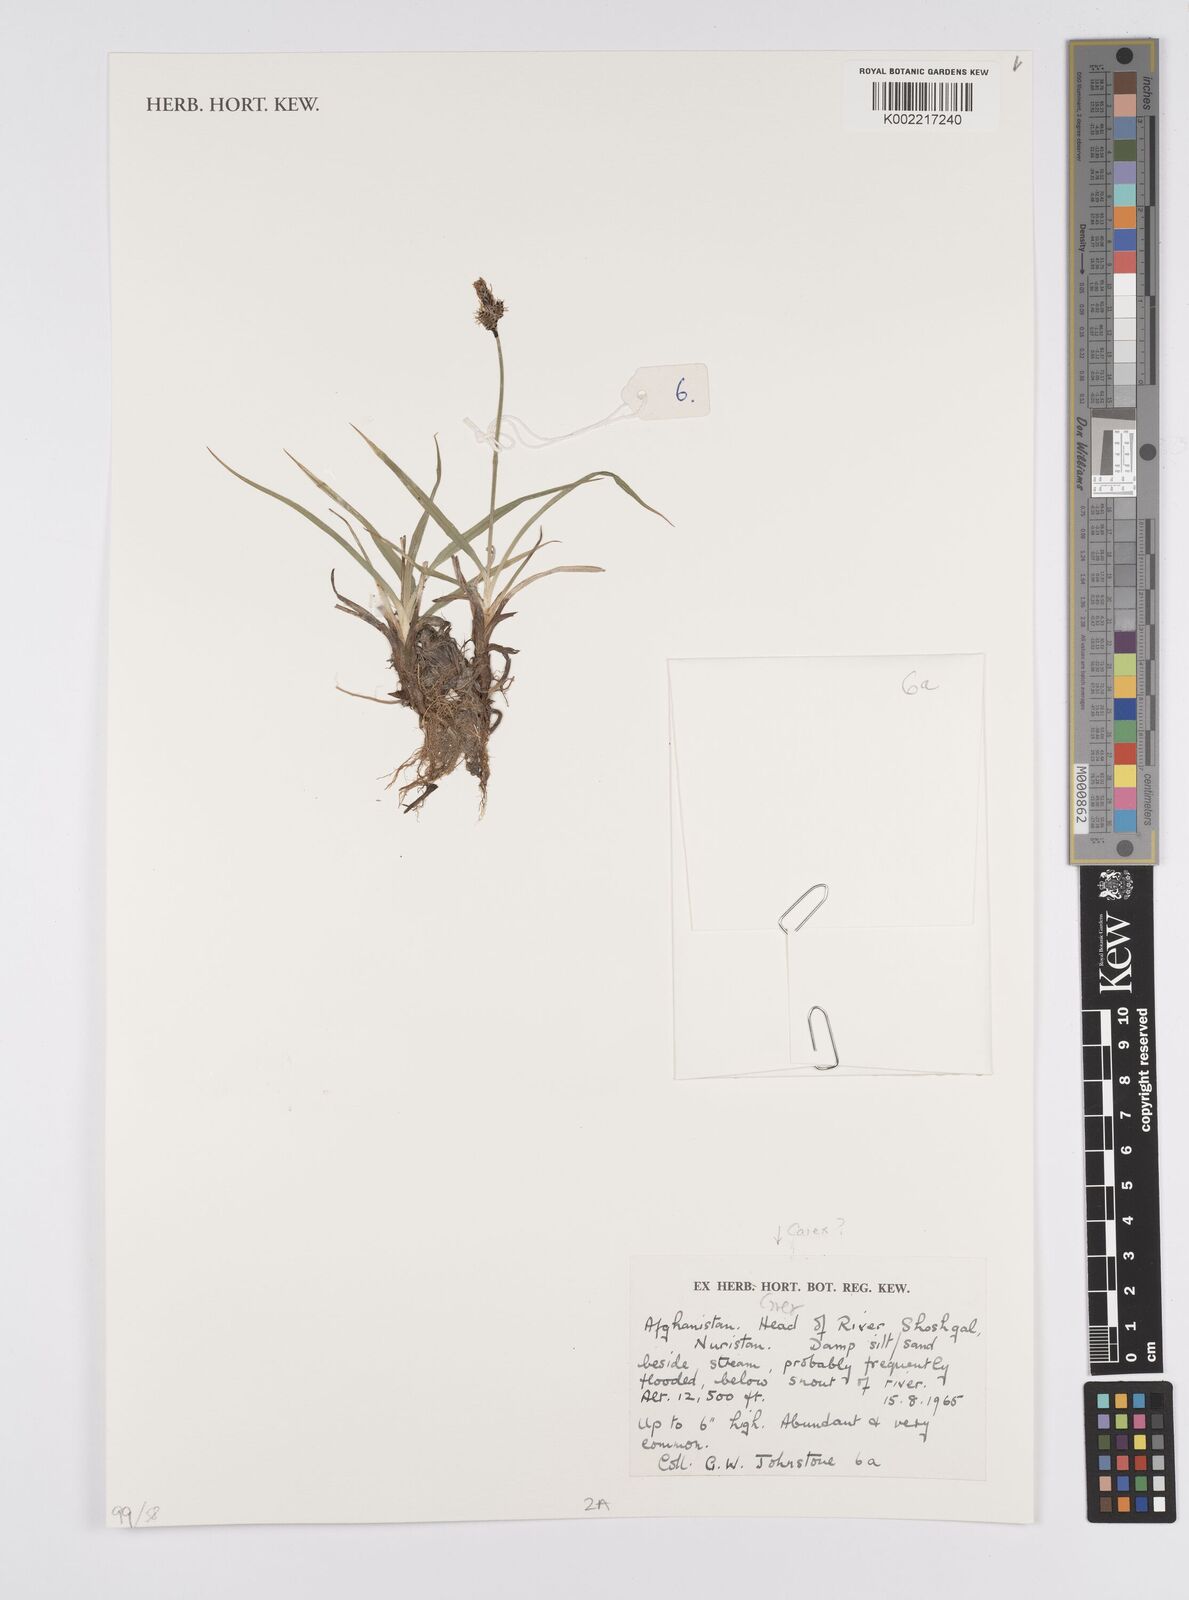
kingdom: Plantae
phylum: Tracheophyta
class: Liliopsida
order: Poales
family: Cyperaceae
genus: Carex
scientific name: Carex
